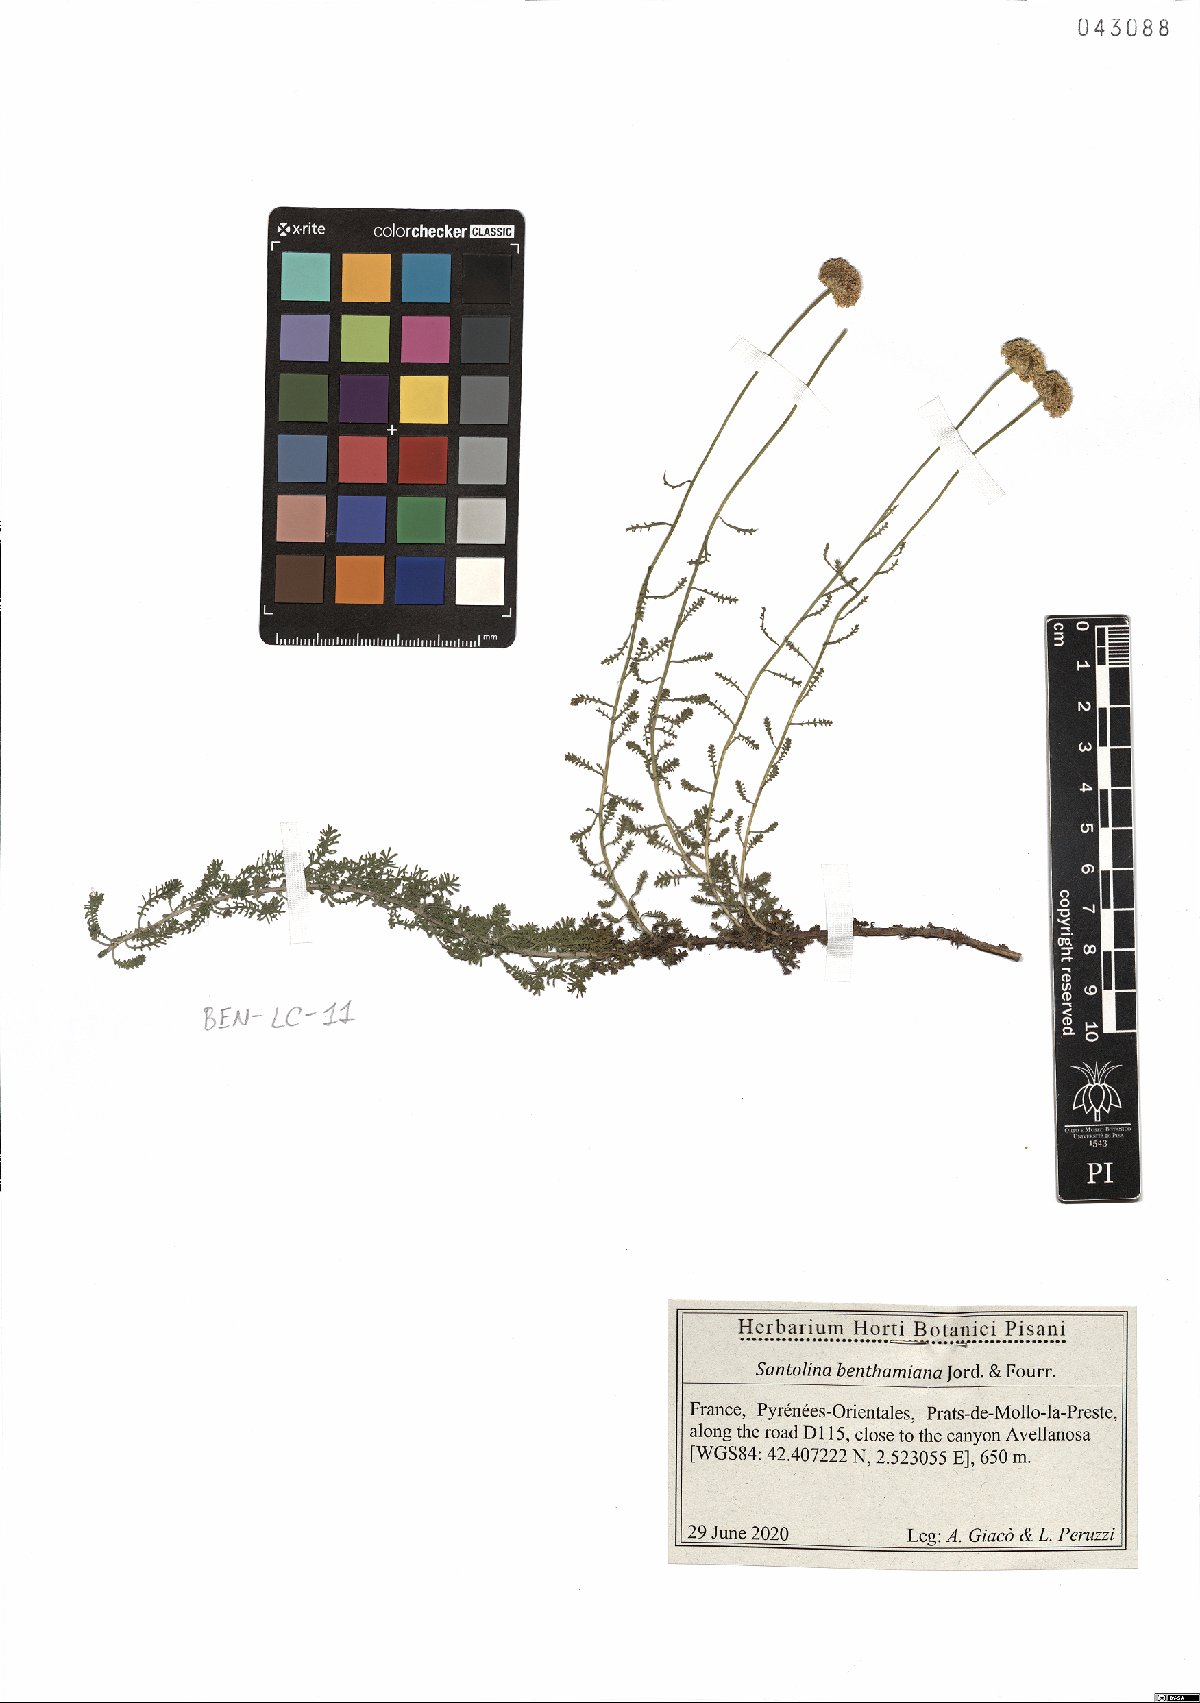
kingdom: Plantae
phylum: Tracheophyta
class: Magnoliopsida
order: Asterales
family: Asteraceae
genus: Santolina
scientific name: Santolina benthamiana
